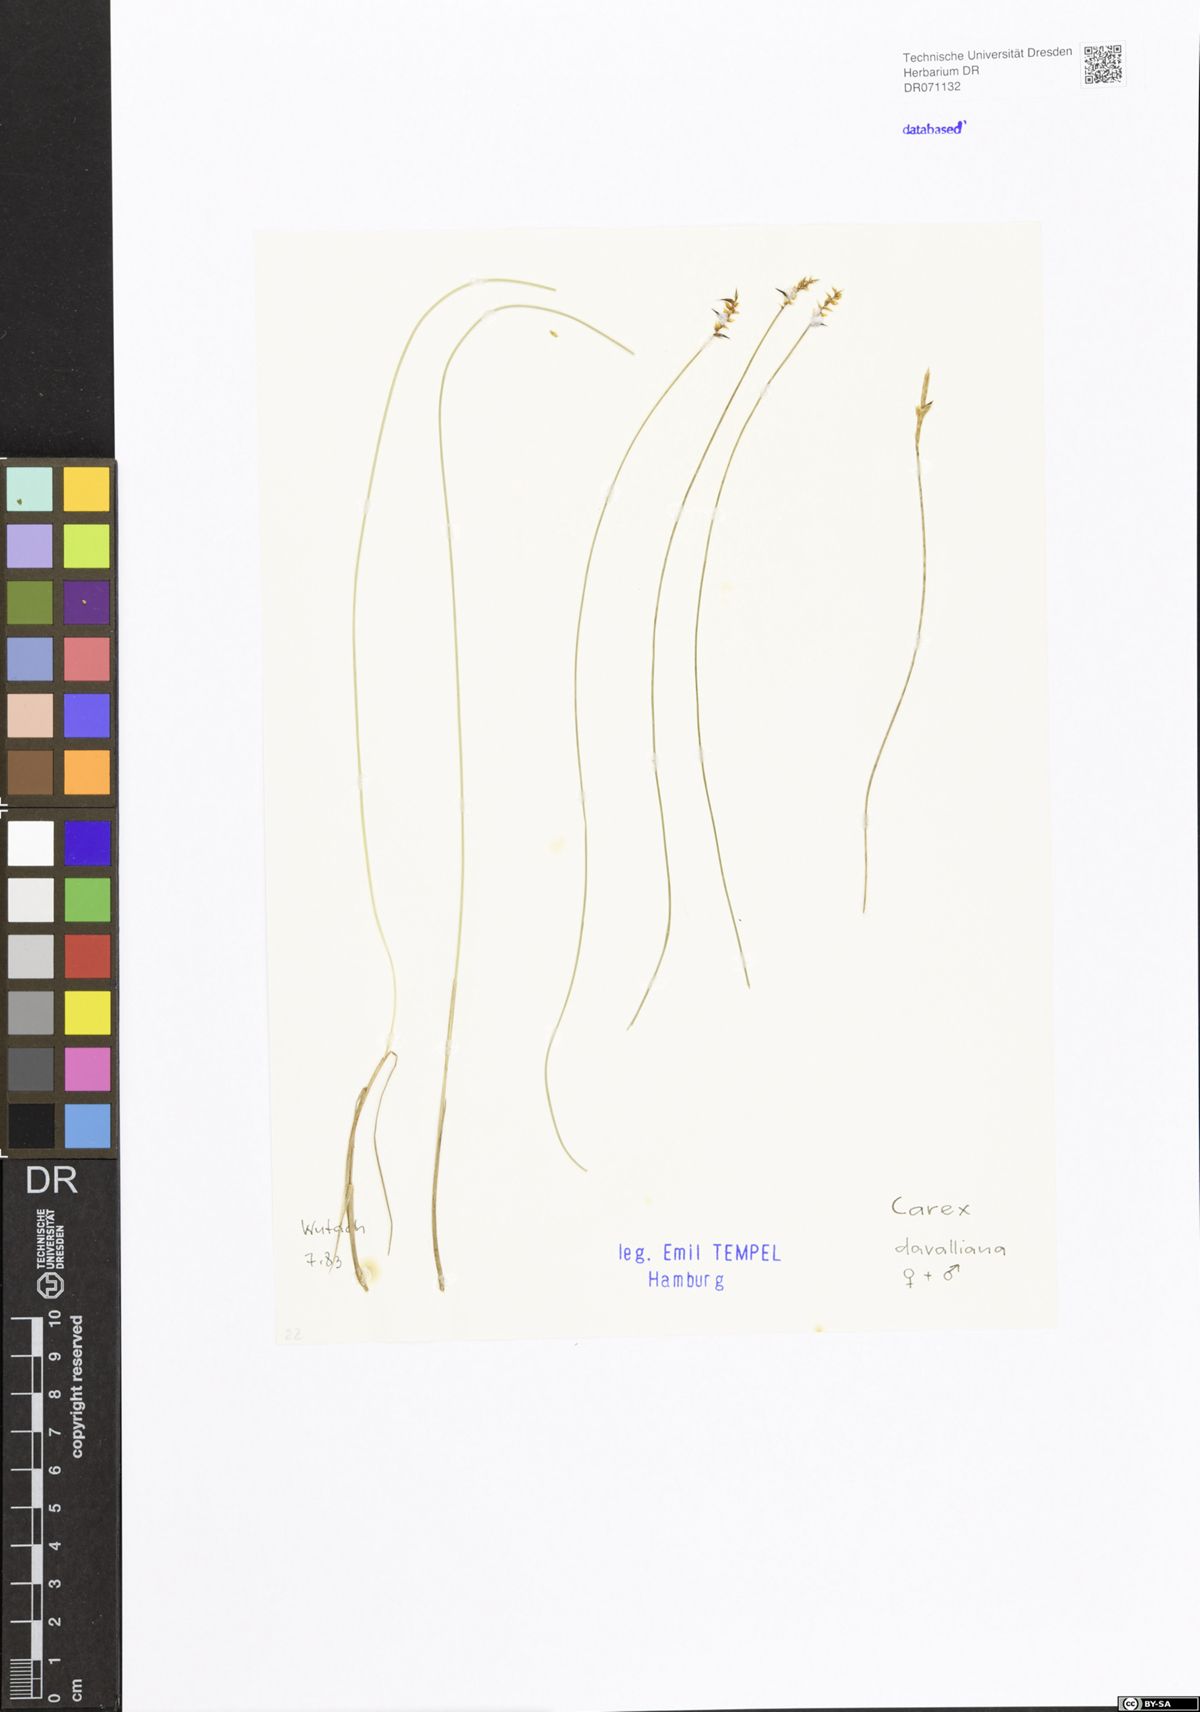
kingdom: Plantae
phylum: Tracheophyta
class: Liliopsida
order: Poales
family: Cyperaceae
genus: Carex
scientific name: Carex davalliana
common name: Davall's sedge
